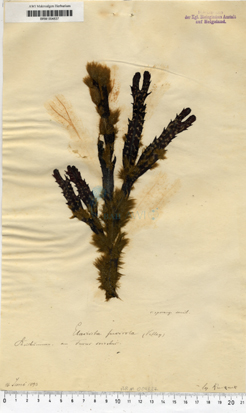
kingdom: Chromista
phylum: Ochrophyta
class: Phaeophyceae
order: Ectocarpales
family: Chordariaceae
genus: Elachista
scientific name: Elachista fucicola
